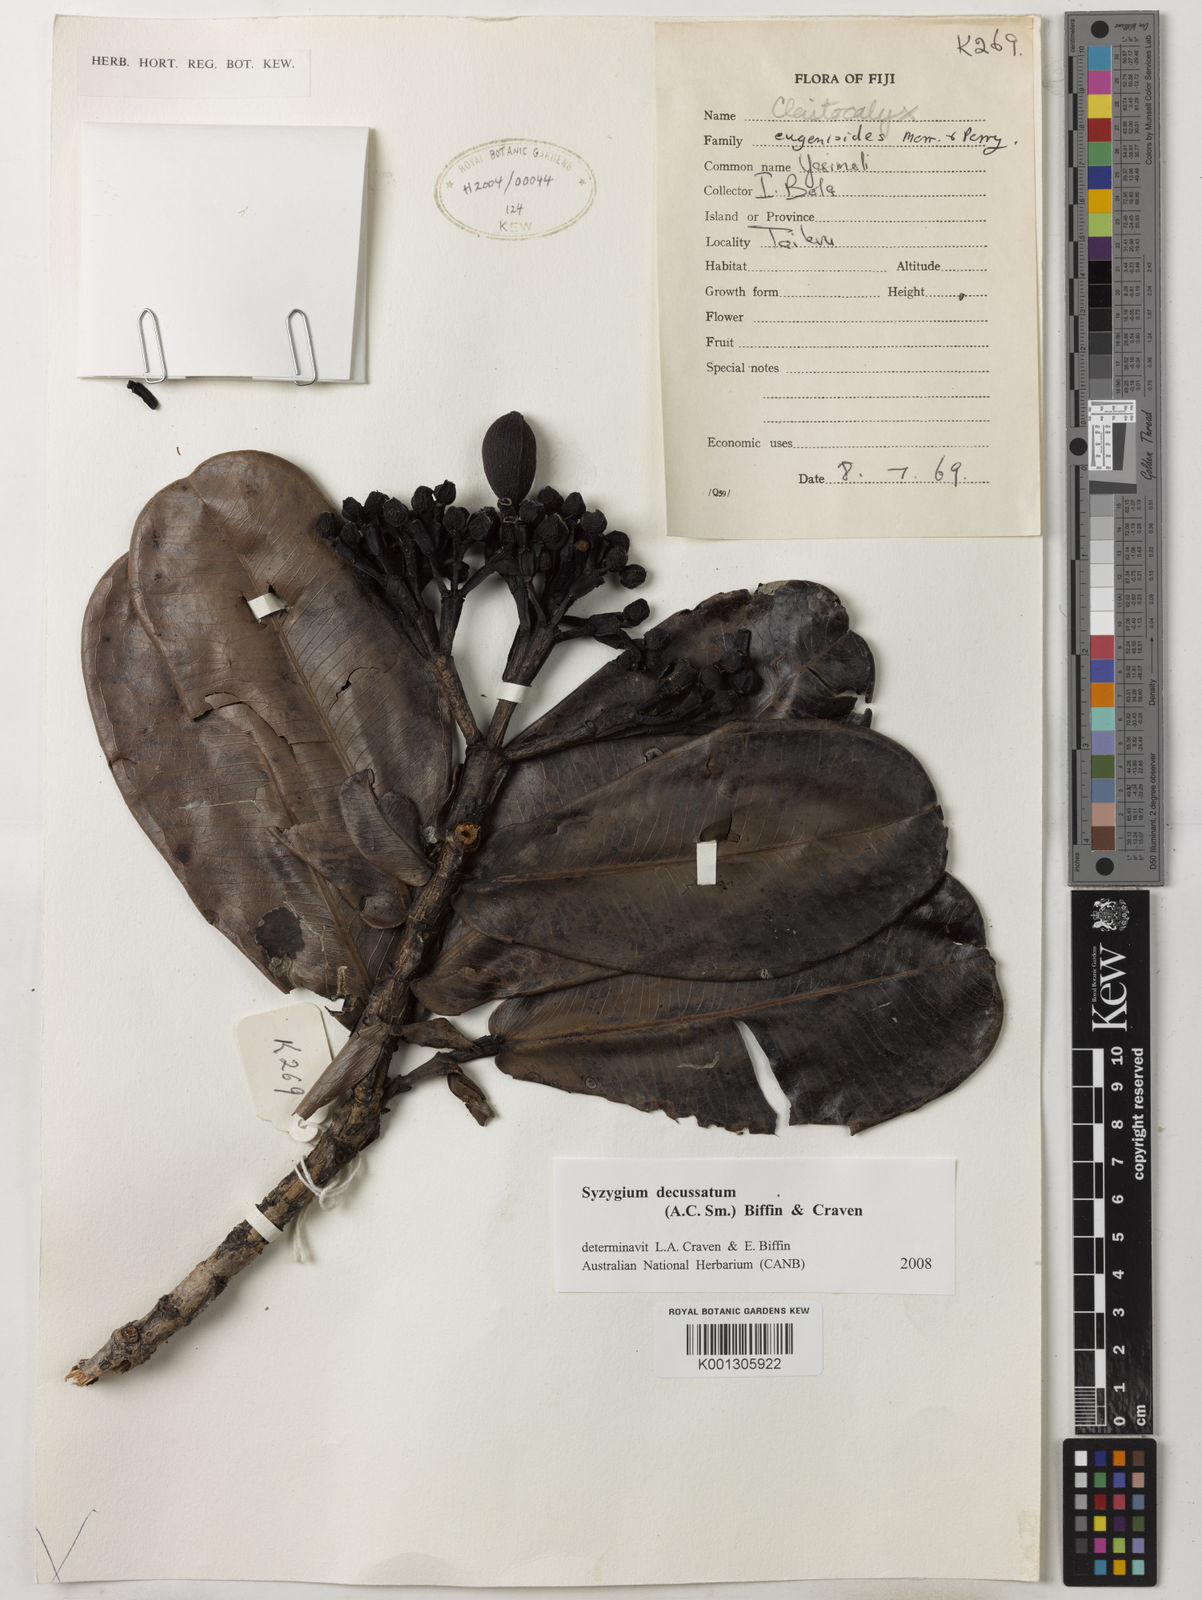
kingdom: Plantae
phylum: Tracheophyta
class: Magnoliopsida
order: Myrtales
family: Myrtaceae
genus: Syzygium
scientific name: Syzygium
